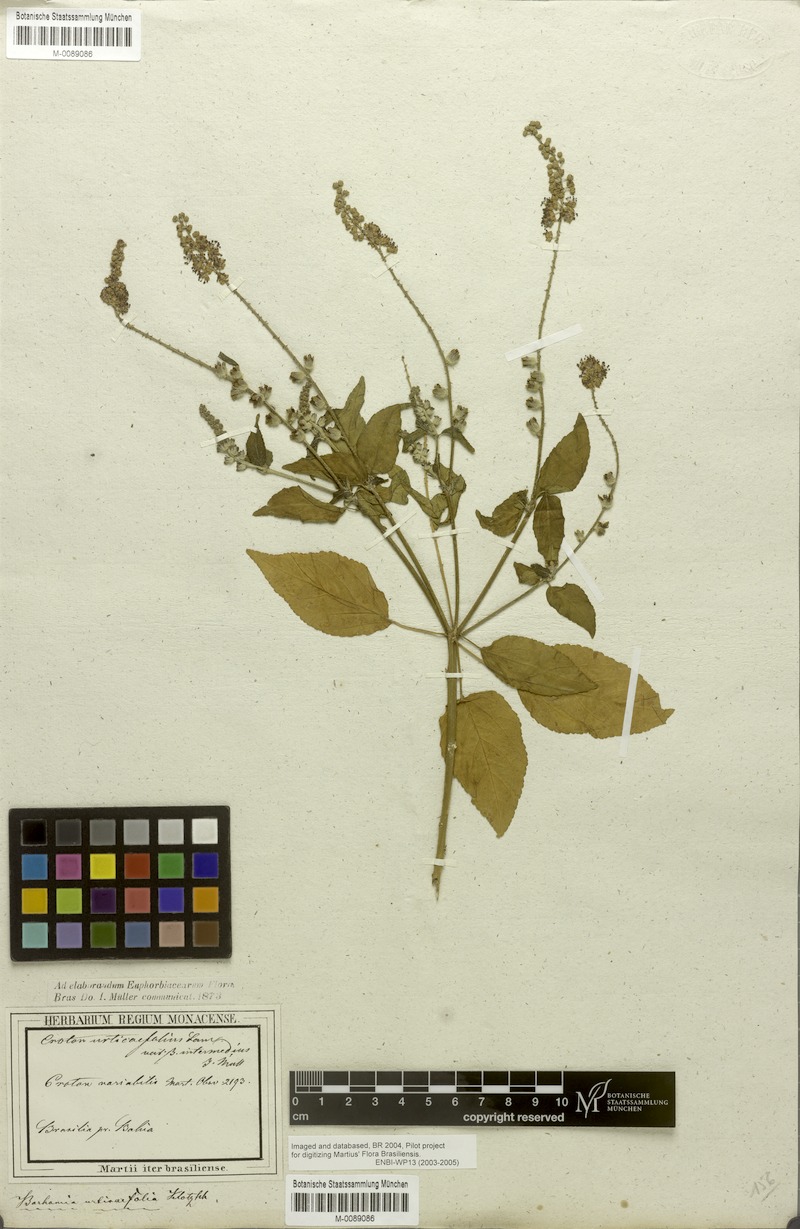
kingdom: Plantae
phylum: Tracheophyta
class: Magnoliopsida
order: Malpighiales
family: Euphorbiaceae
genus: Croton
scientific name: Croton urticifolius
